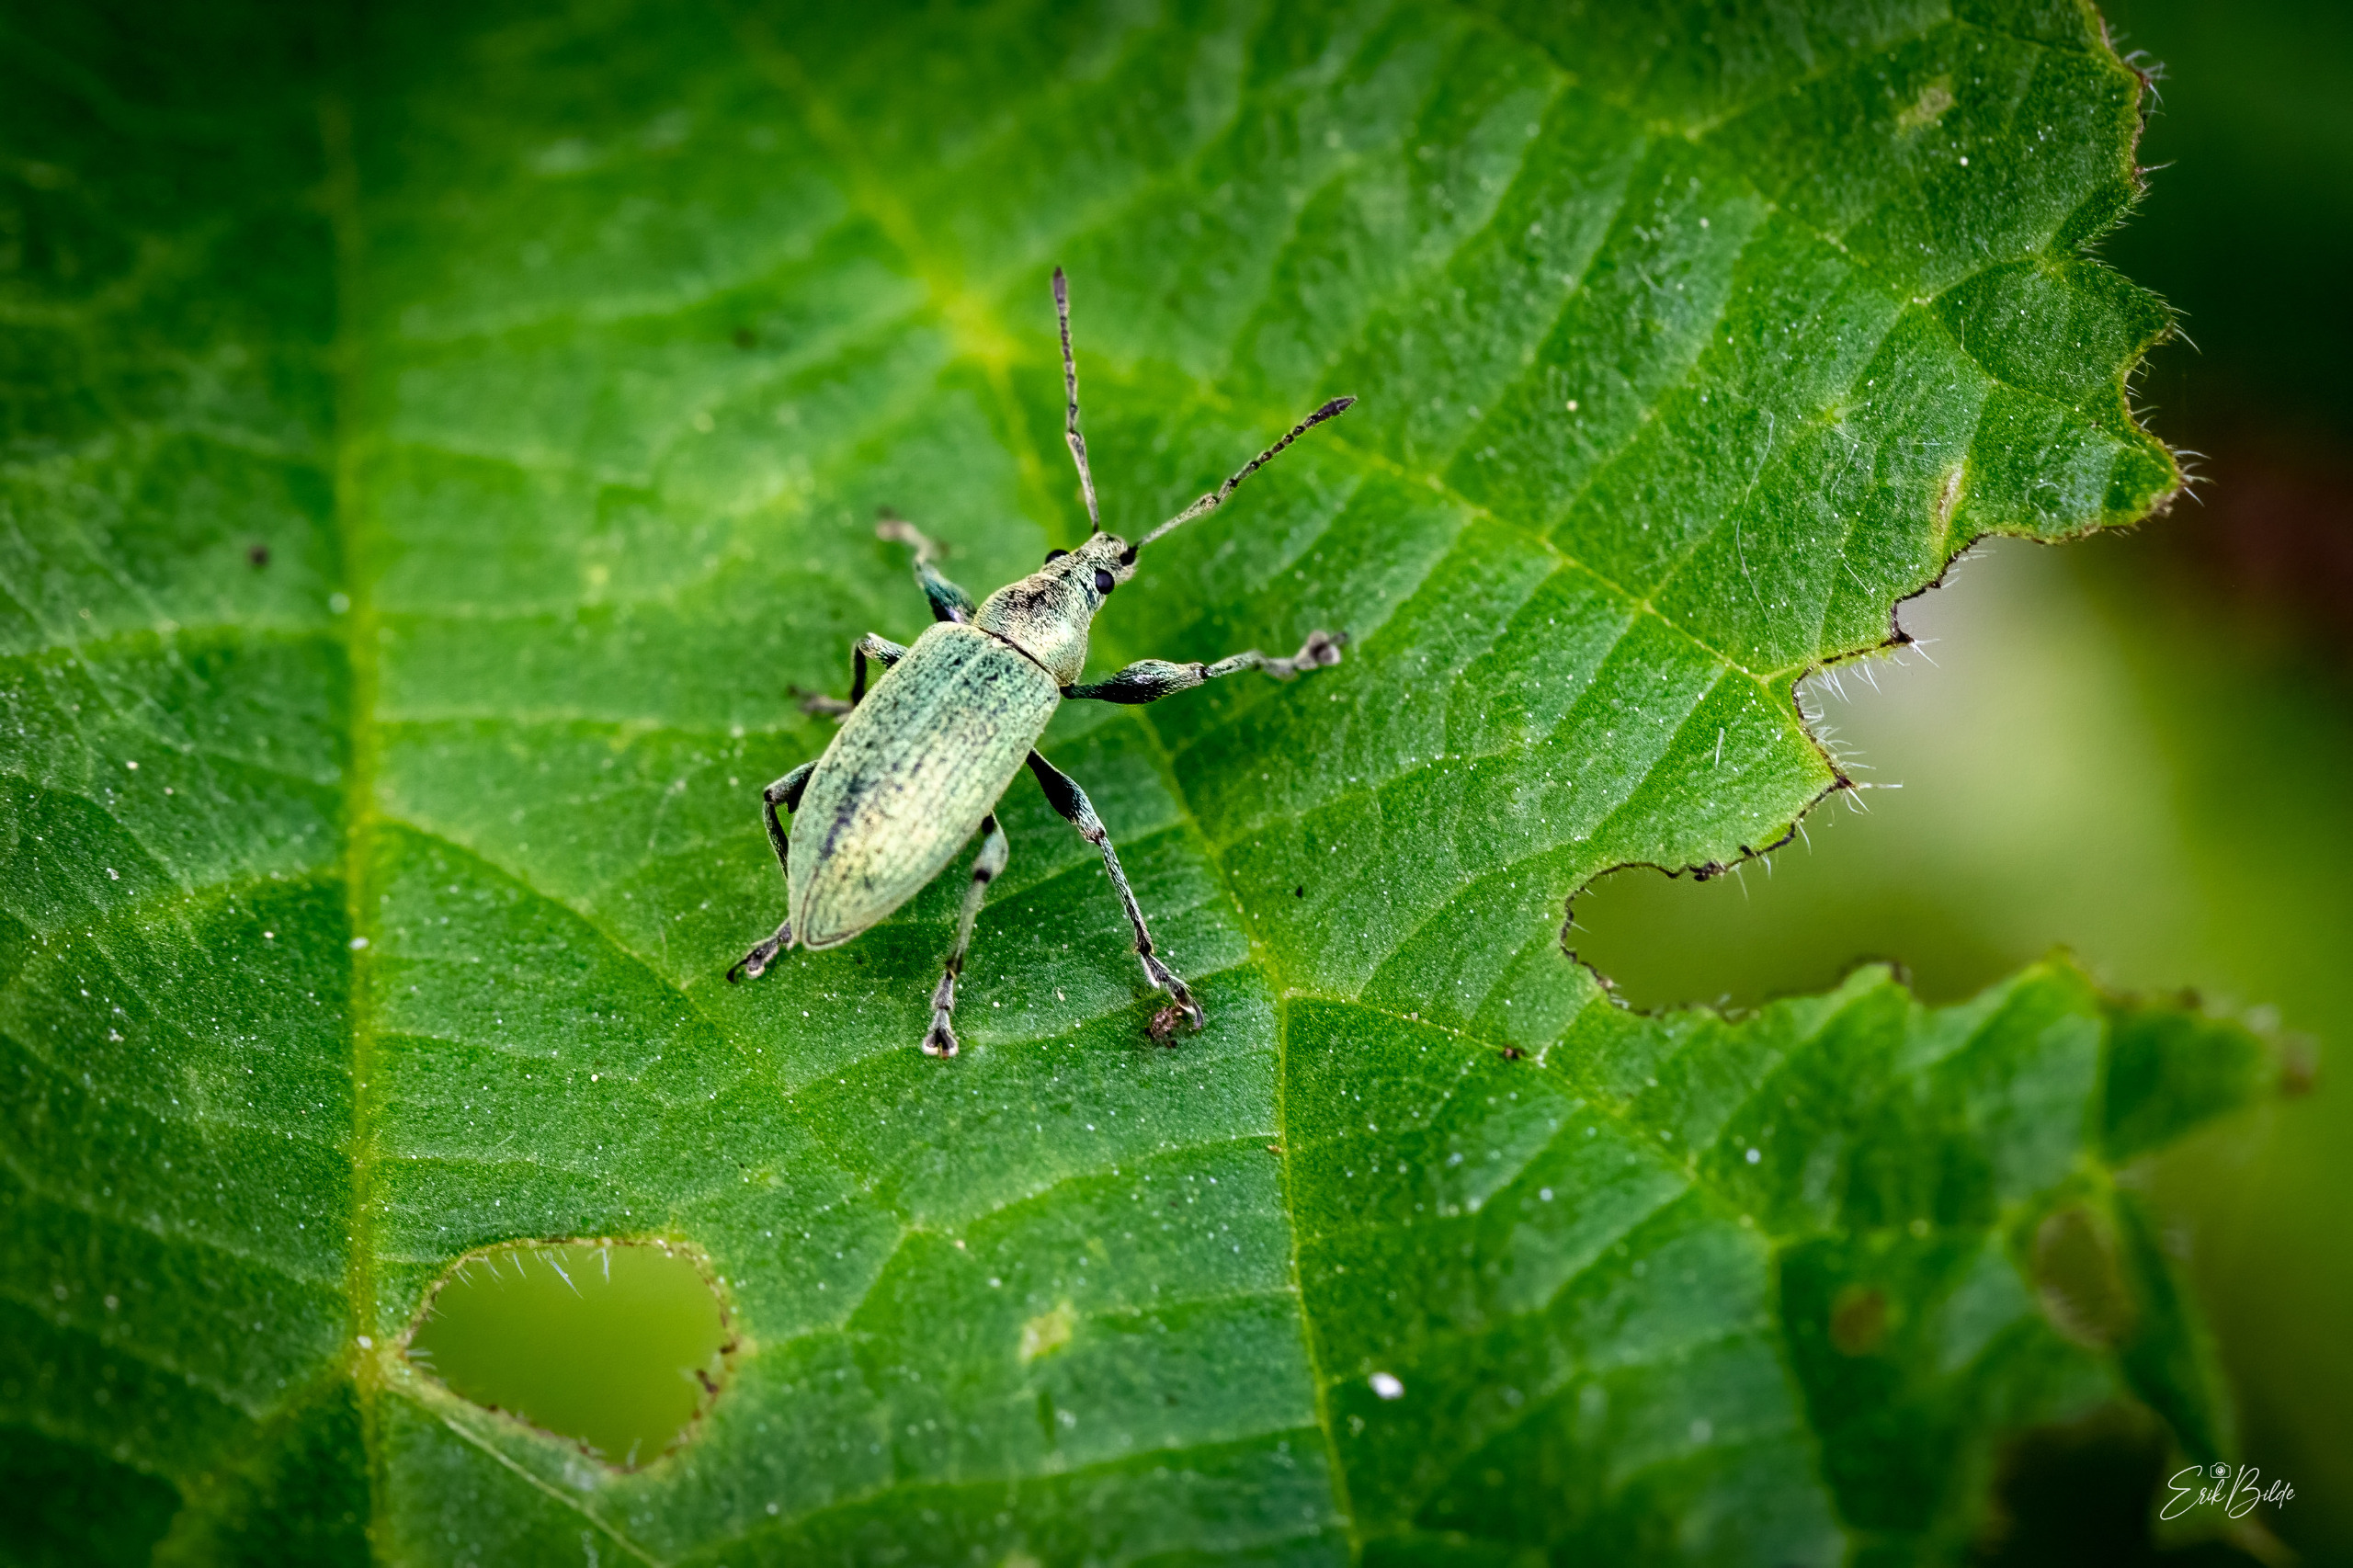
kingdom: Animalia
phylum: Arthropoda
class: Insecta
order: Coleoptera
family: Curculionidae
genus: Phyllobius
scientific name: Phyllobius pomaceus
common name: Nældesnudebille
